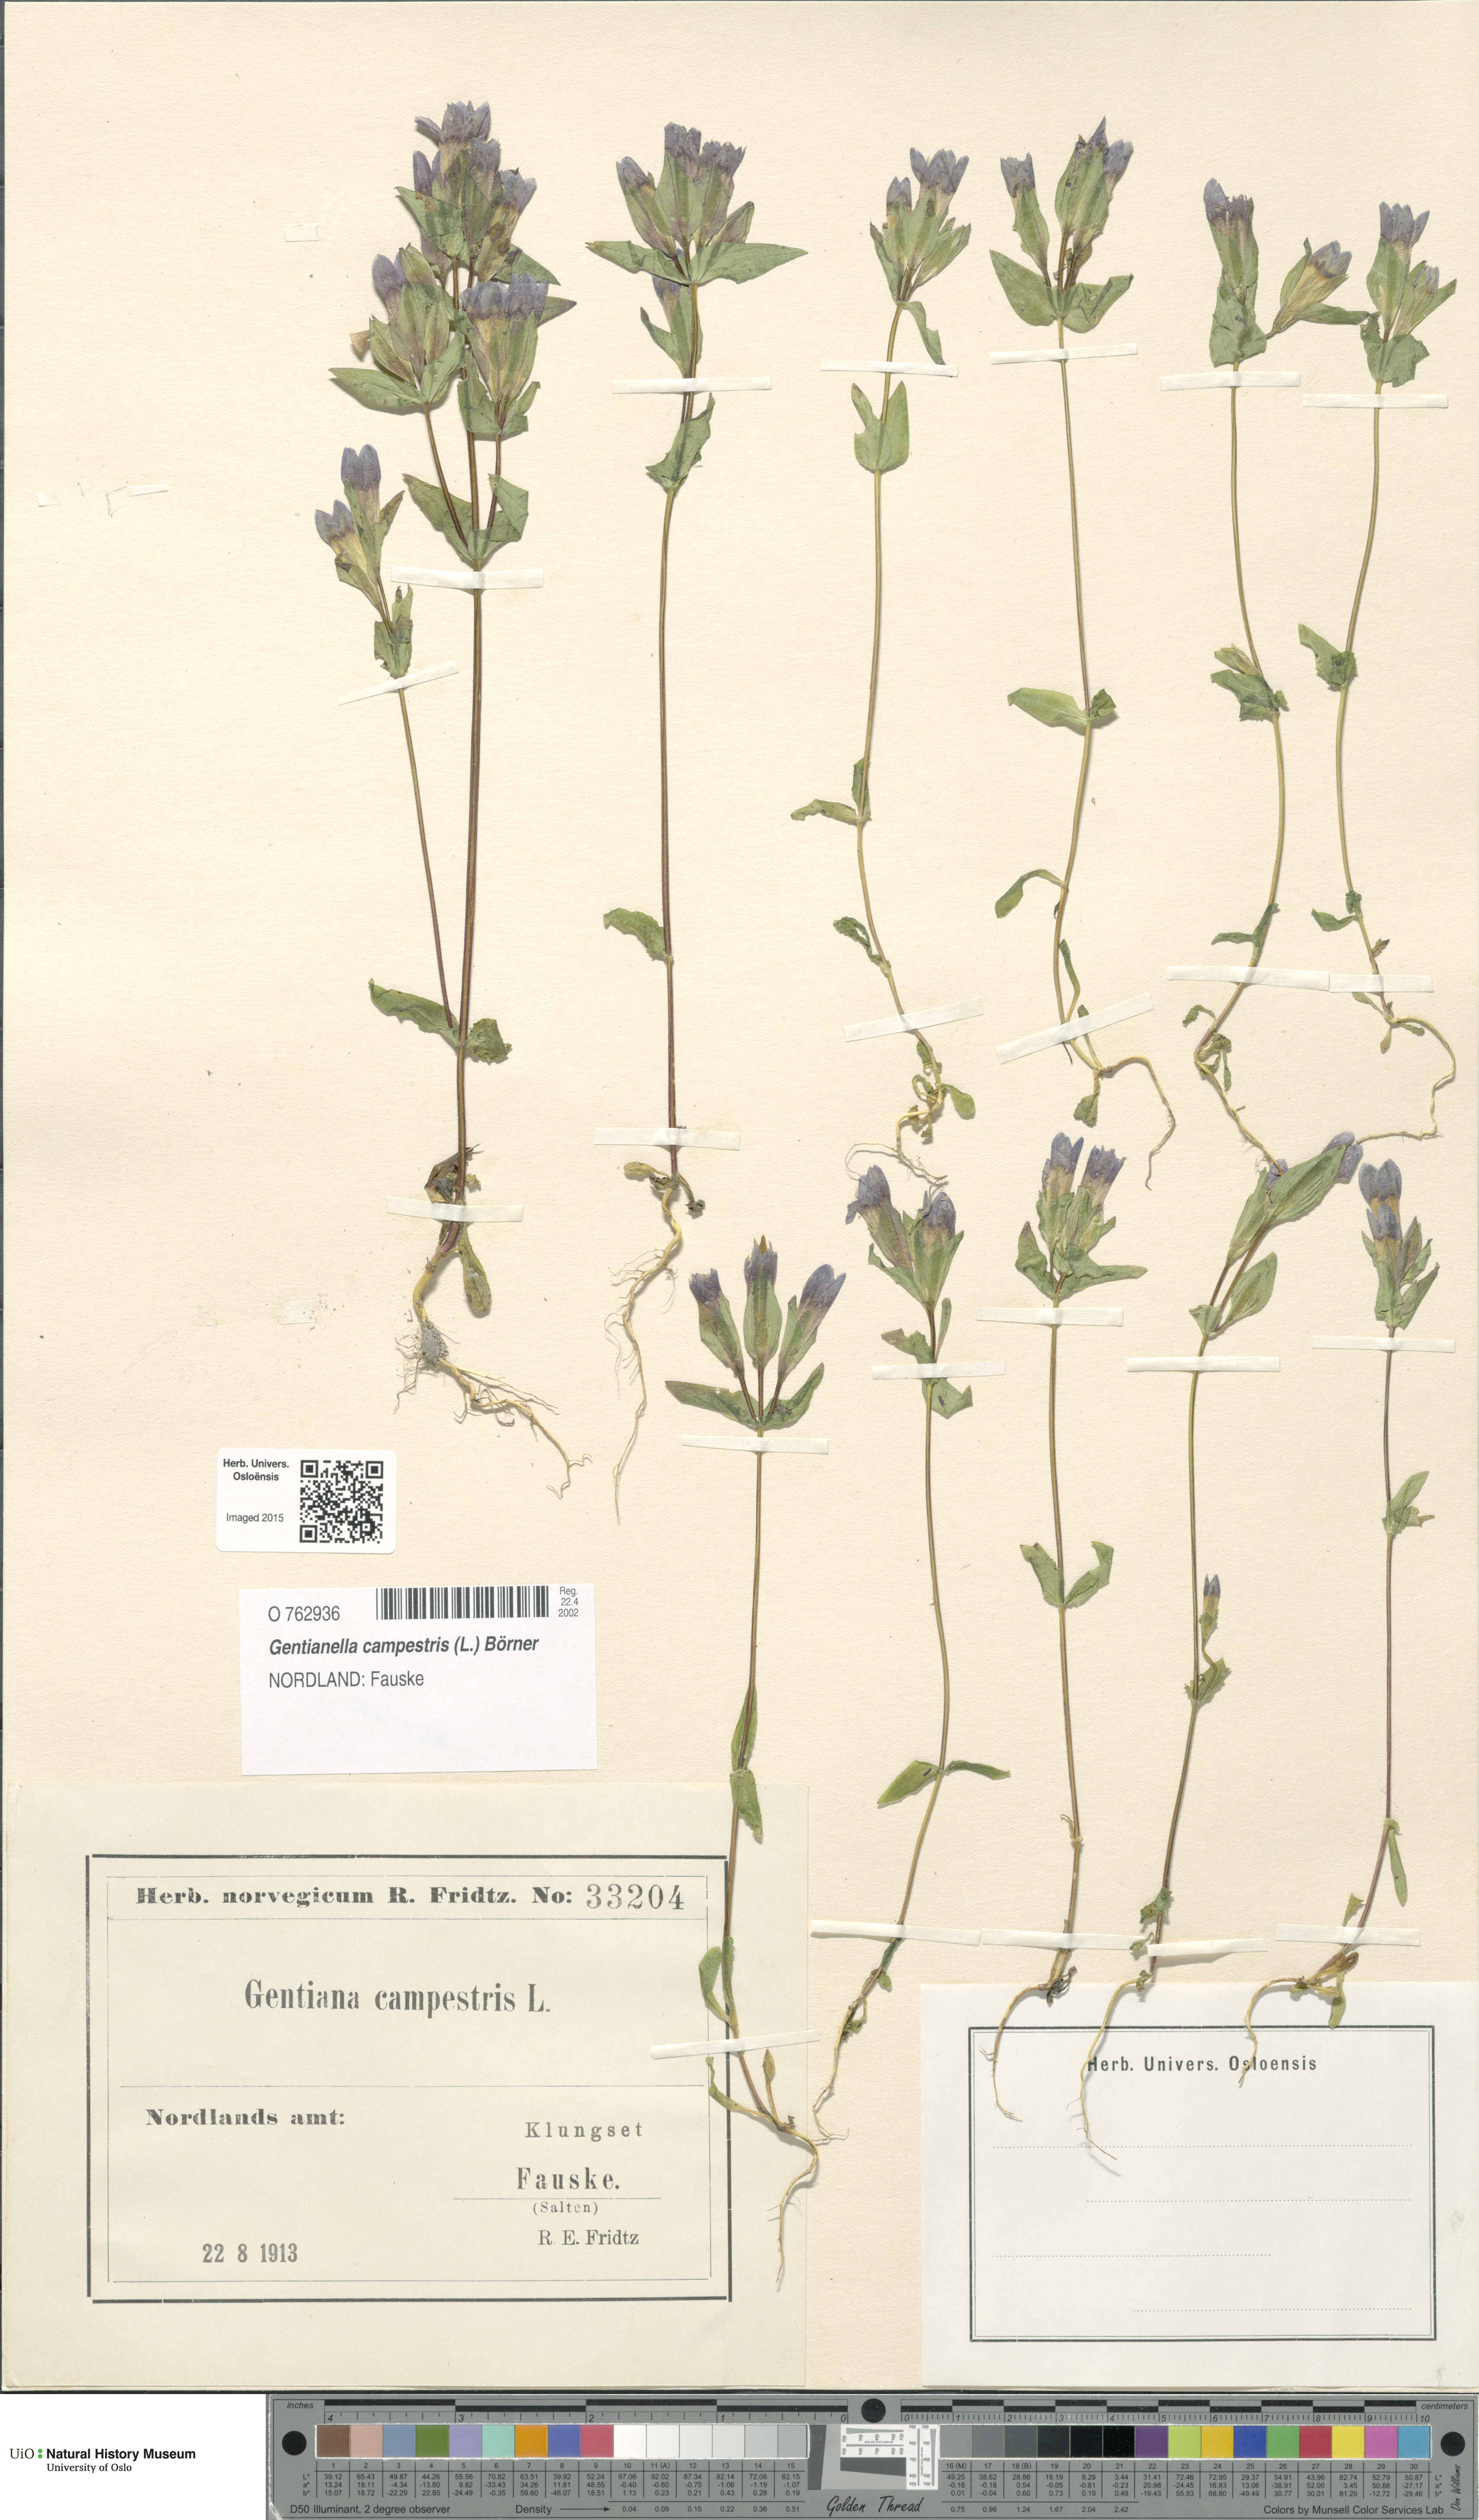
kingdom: Plantae
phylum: Tracheophyta
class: Magnoliopsida
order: Gentianales
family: Gentianaceae
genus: Gentianella
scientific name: Gentianella campestris
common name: Field gentian
